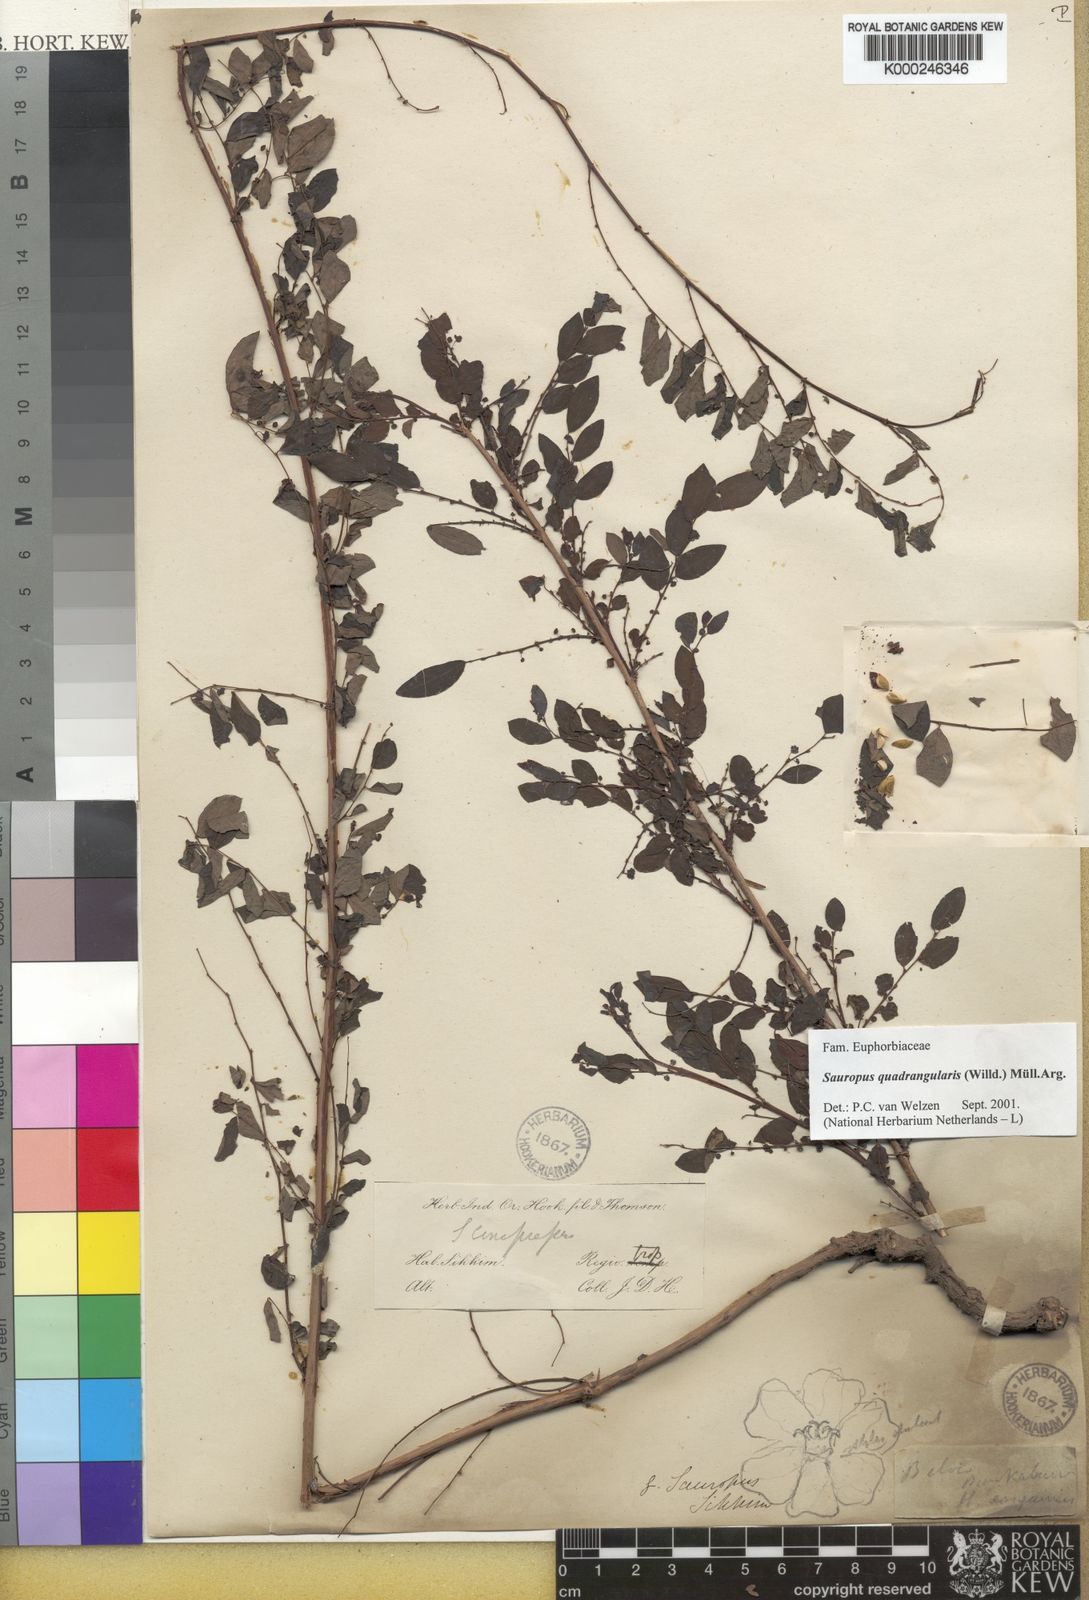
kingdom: Animalia
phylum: Chordata
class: Amphibia
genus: Sauropus
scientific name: Sauropus
